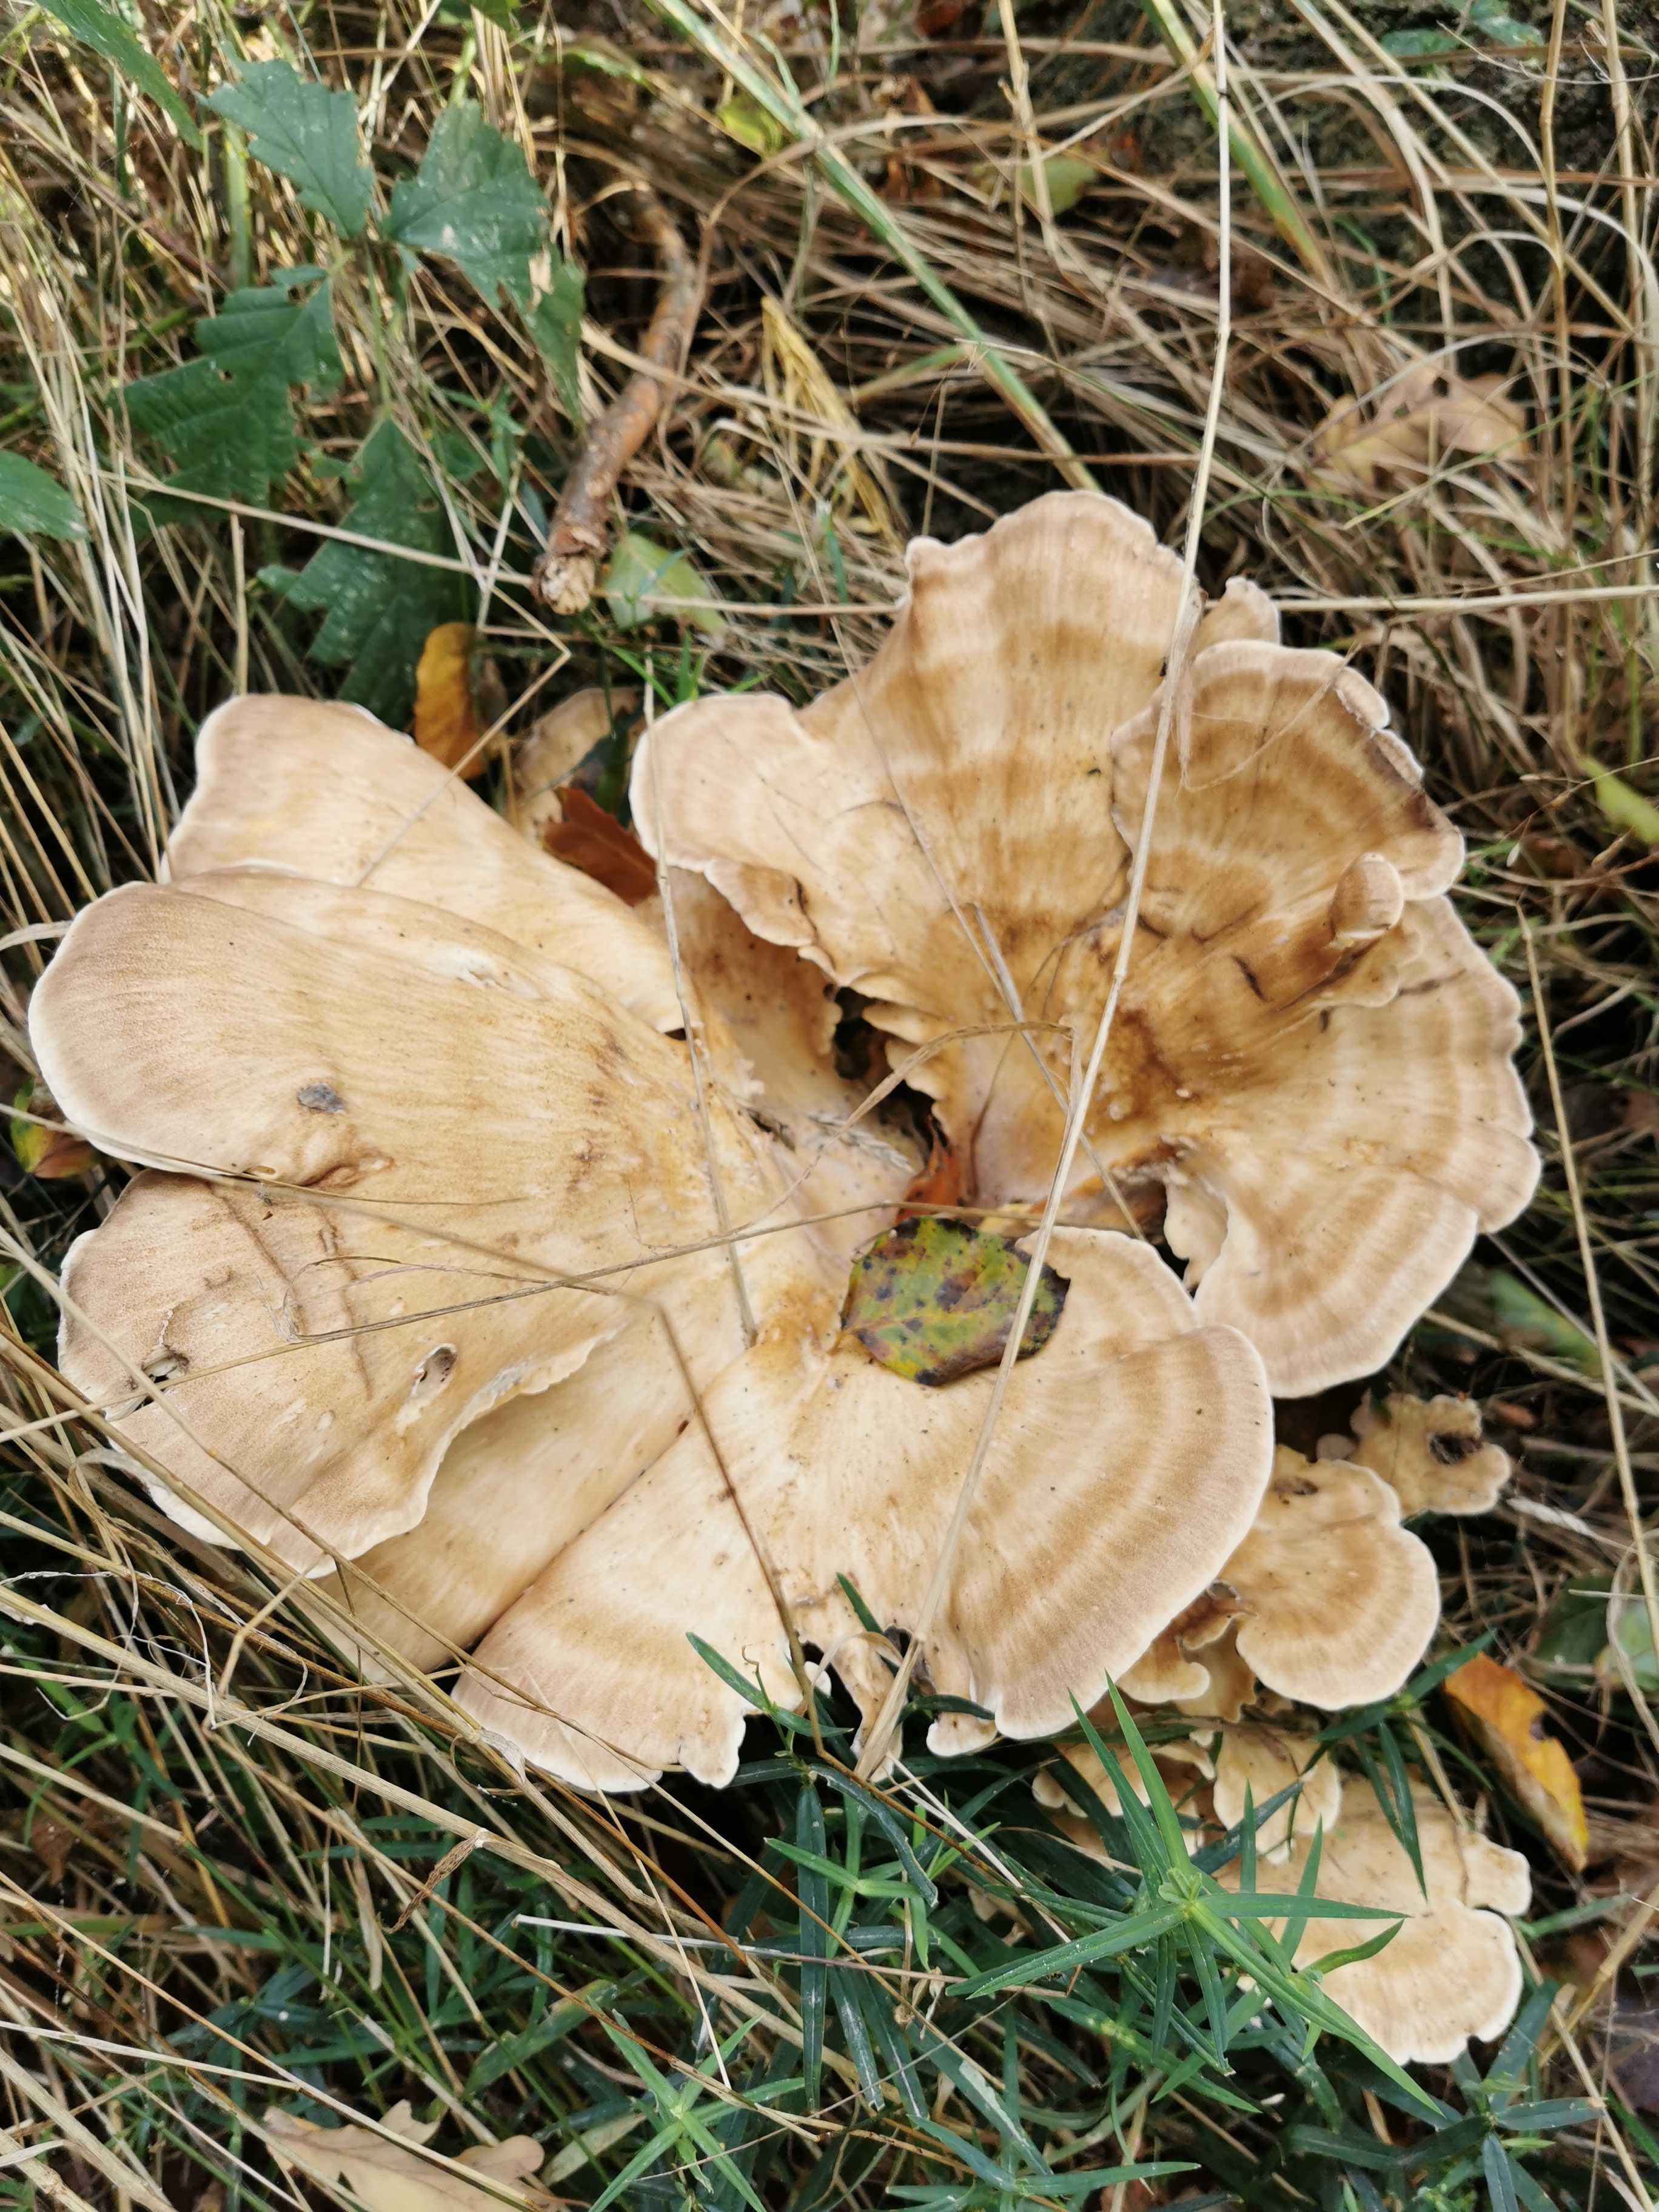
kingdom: Fungi
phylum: Basidiomycota
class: Agaricomycetes
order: Polyporales
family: Meripilaceae
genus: Meripilus
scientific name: Meripilus giganteus
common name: kæmpeporesvamp
